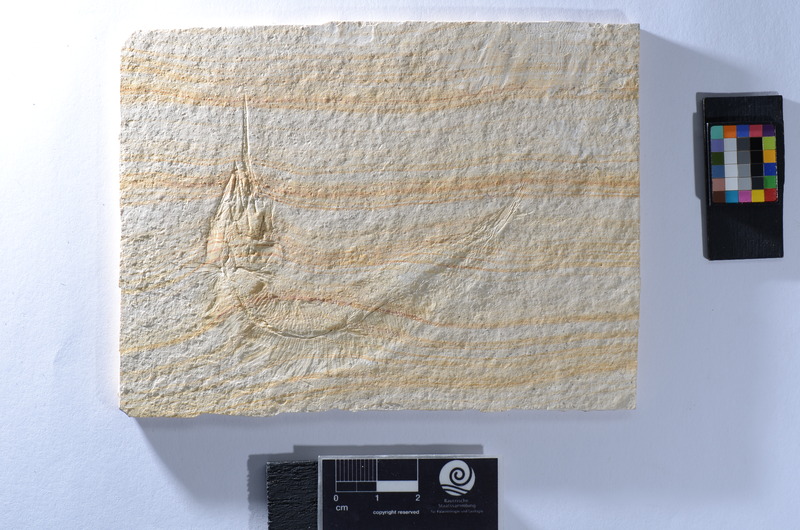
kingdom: Animalia
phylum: Chordata
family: Aspidorhynchidae
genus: Aspidorhynchus
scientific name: Aspidorhynchus
